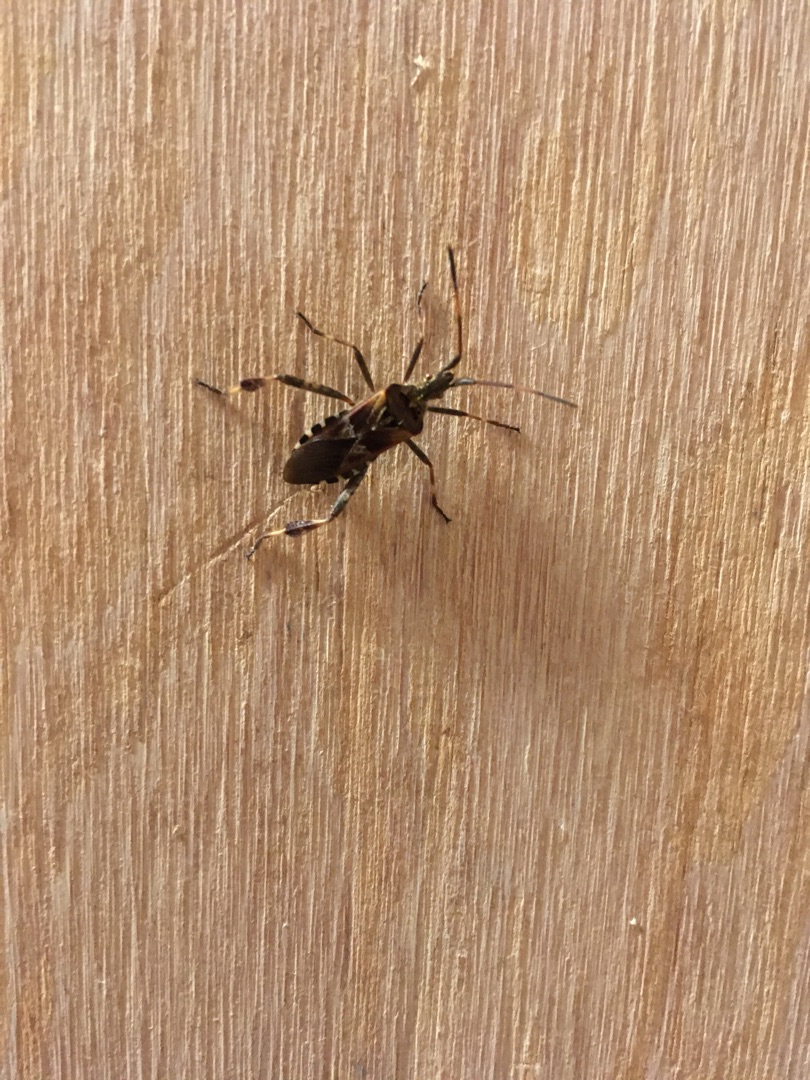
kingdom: Animalia
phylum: Arthropoda
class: Insecta
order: Hemiptera
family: Coreidae
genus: Leptoglossus
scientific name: Leptoglossus occidentalis
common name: Amerikansk fyrretæge
